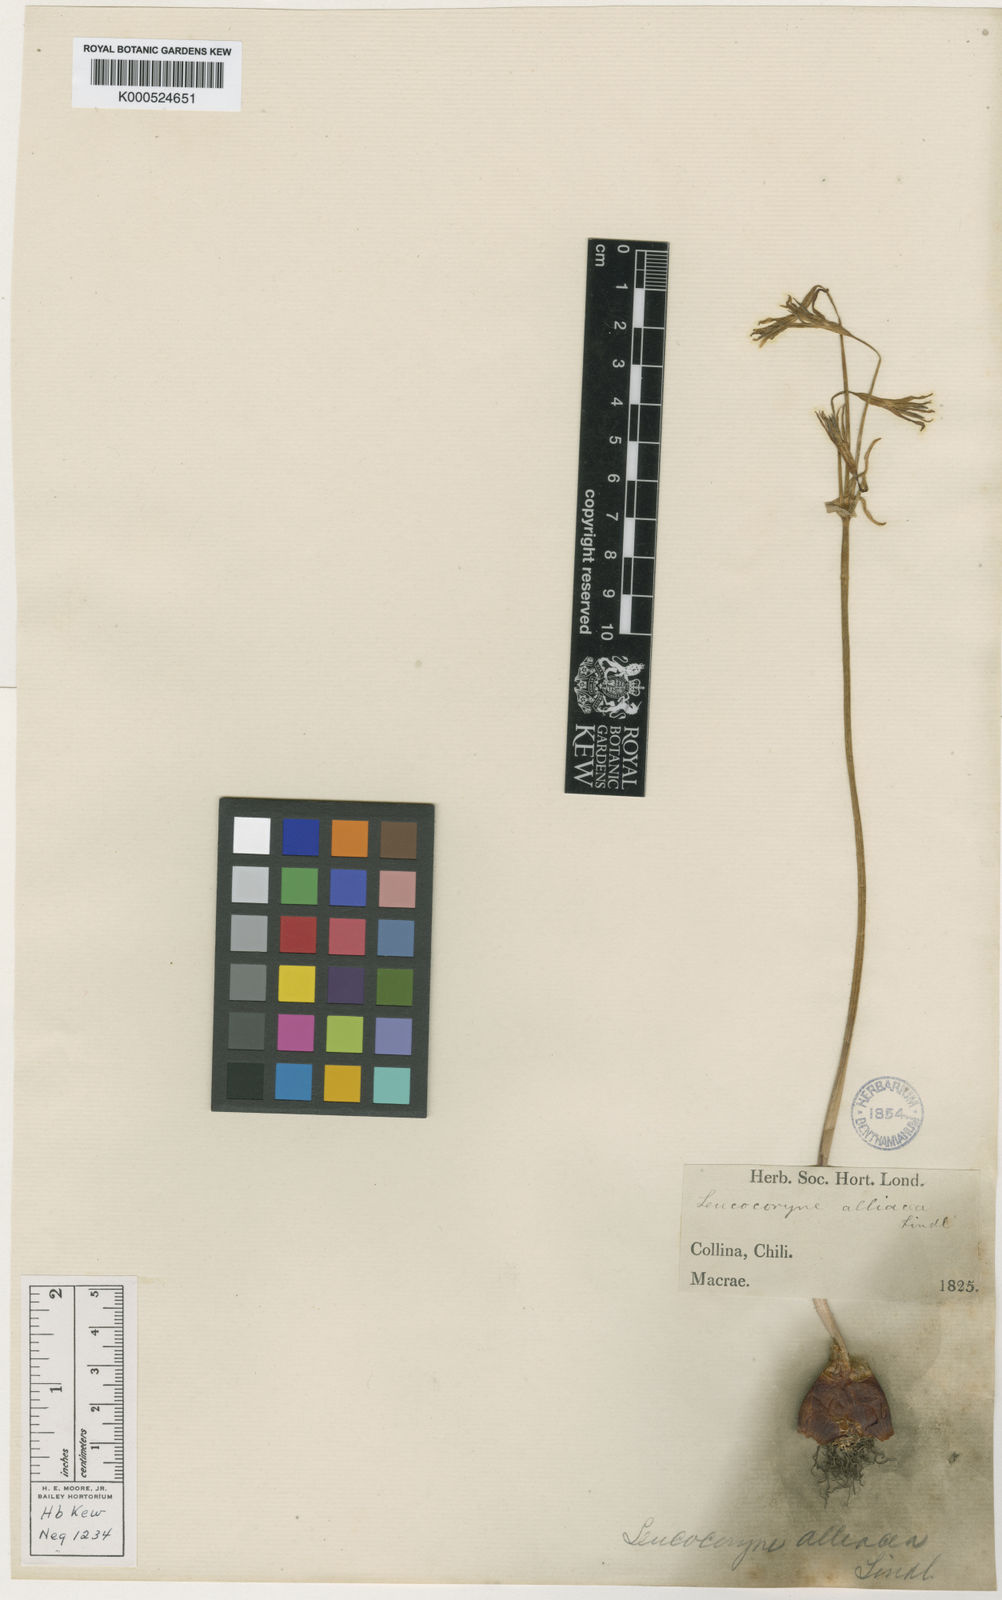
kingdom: Plantae
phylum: Tracheophyta
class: Liliopsida
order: Asparagales
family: Amaryllidaceae
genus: Leucocoryne
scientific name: Leucocoryne alliacea
